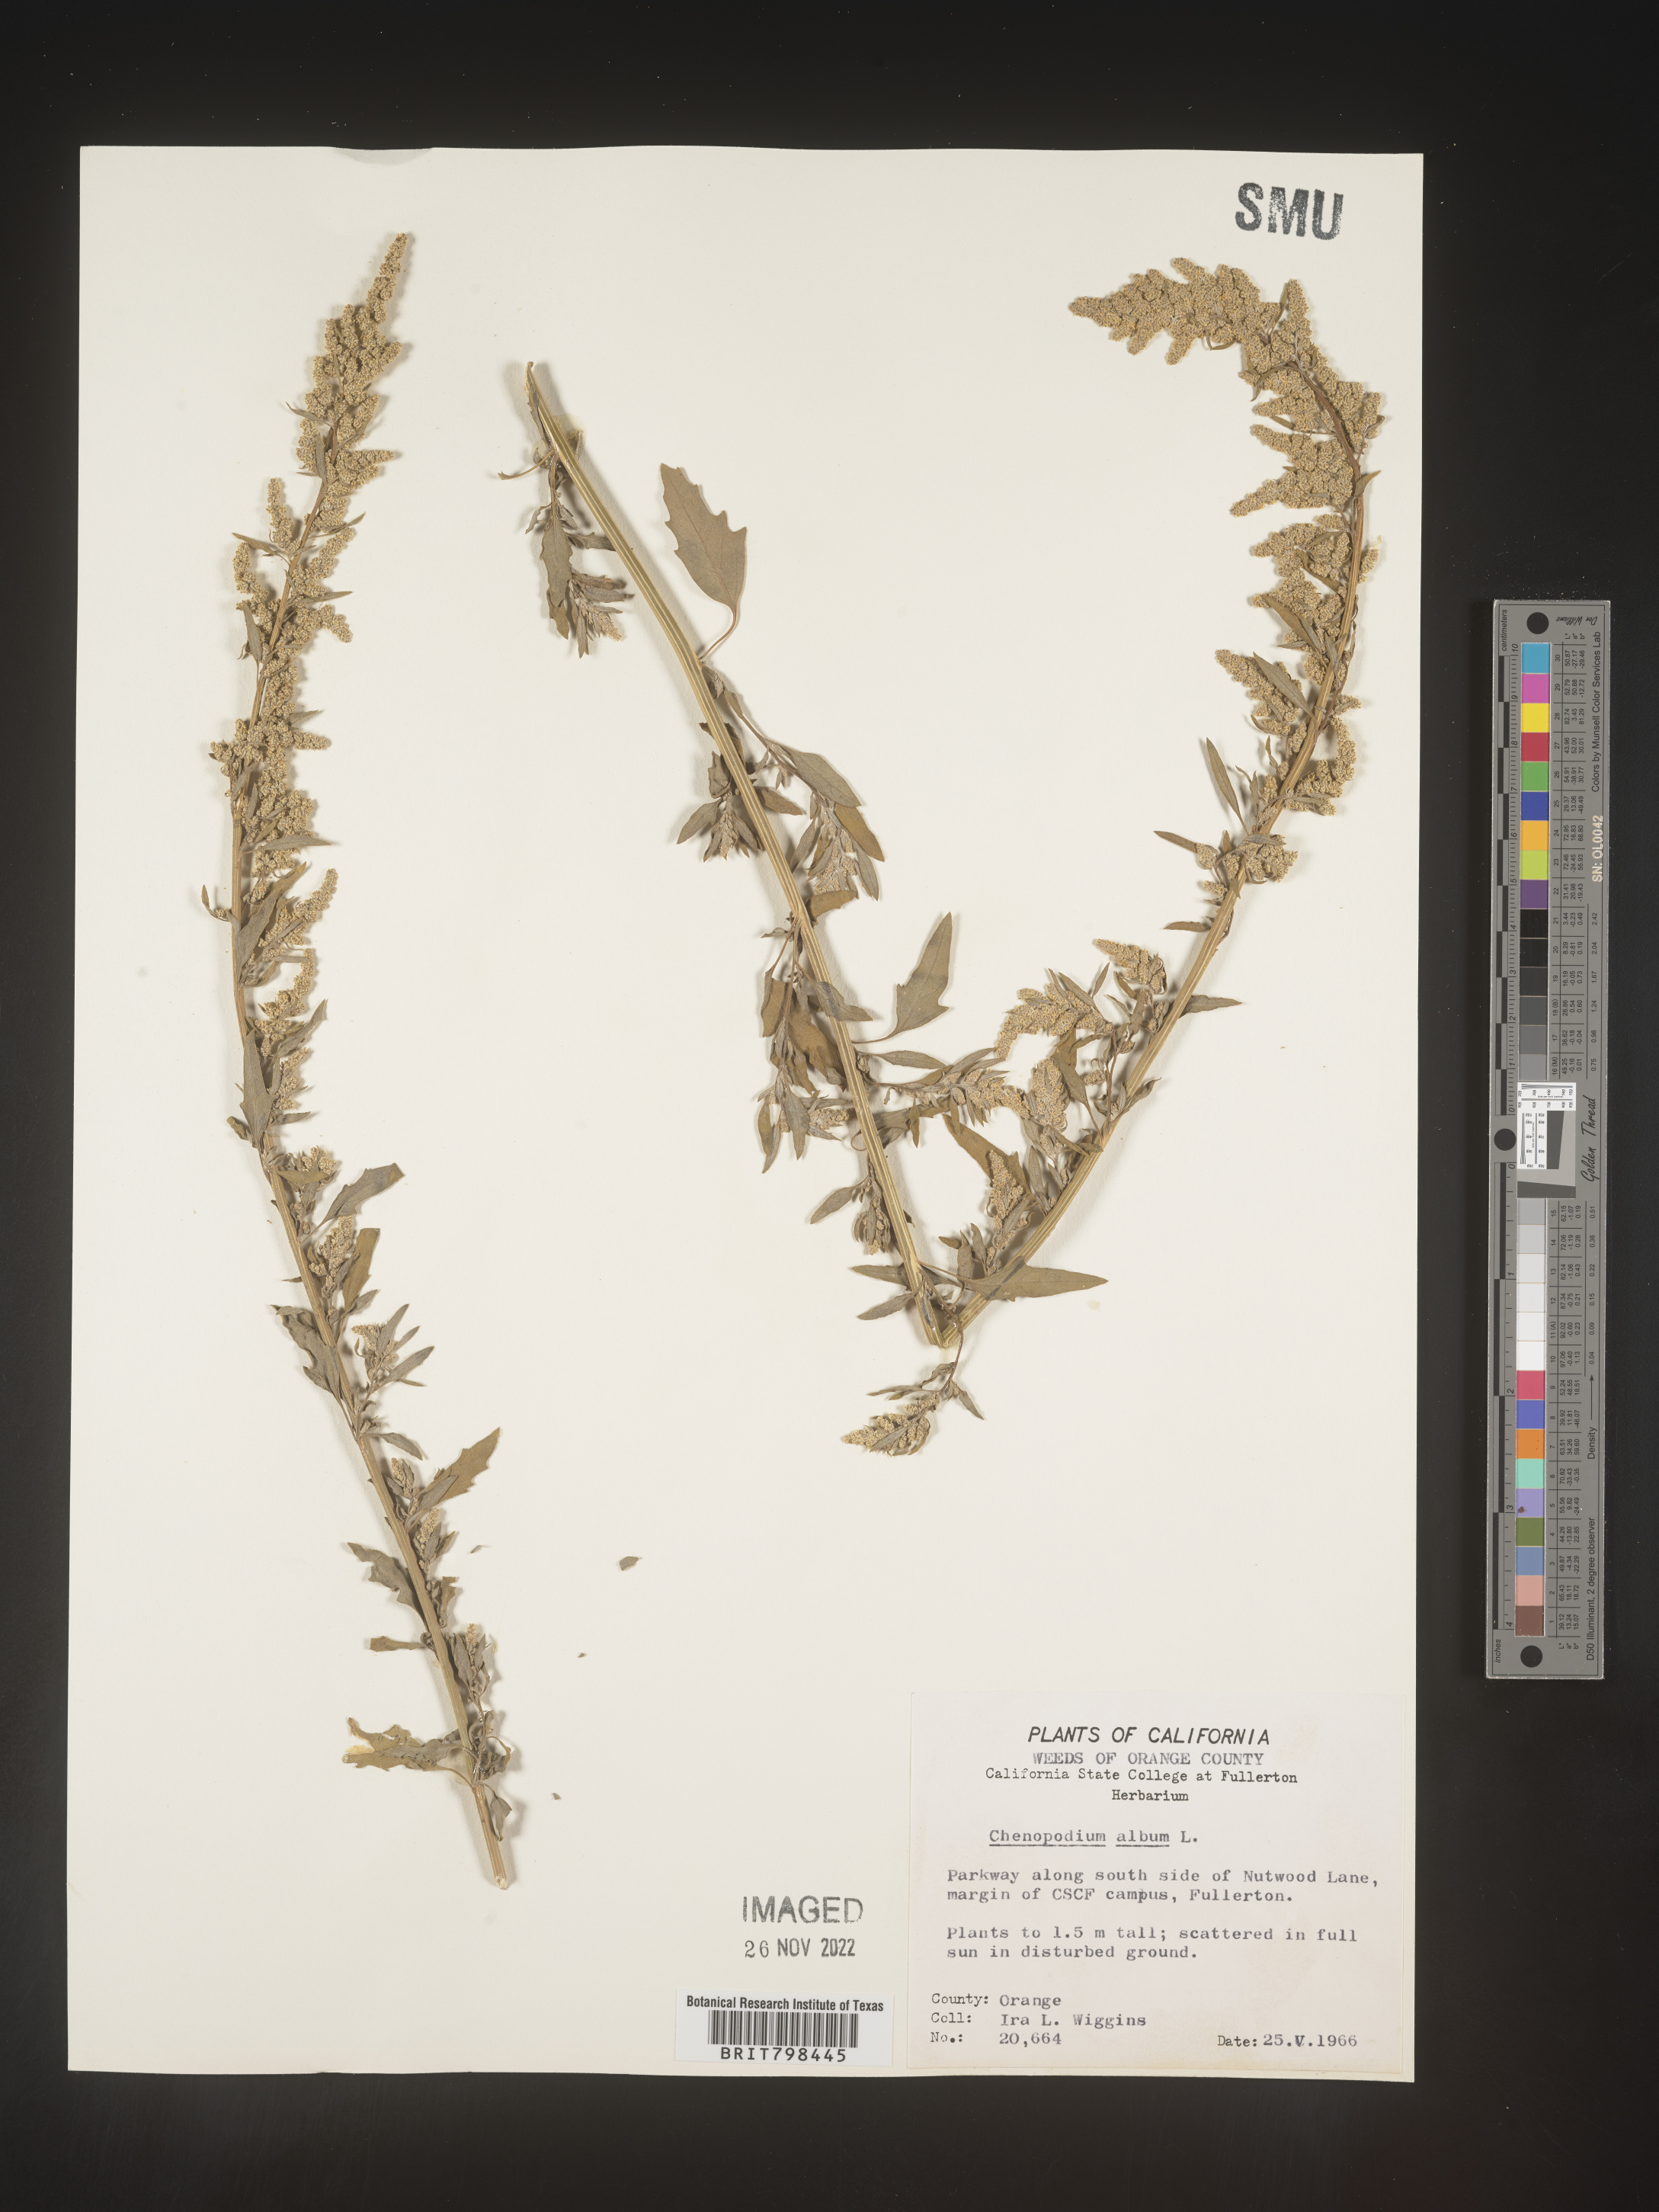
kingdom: Plantae
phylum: Tracheophyta
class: Magnoliopsida
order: Caryophyllales
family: Amaranthaceae
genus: Chenopodium
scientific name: Chenopodium album
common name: Fat-hen
